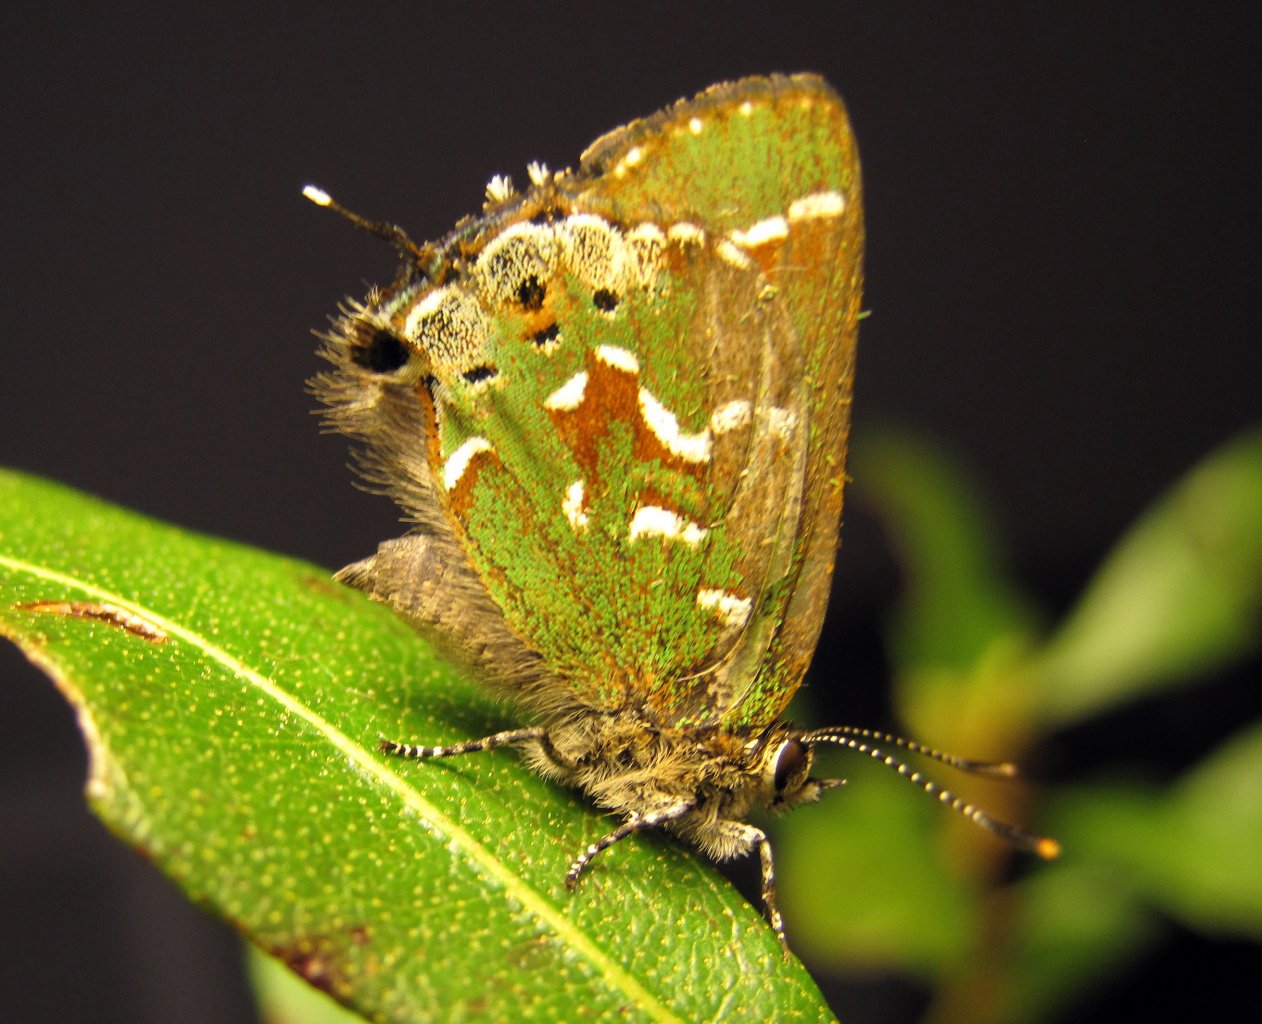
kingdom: Animalia
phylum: Arthropoda
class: Insecta
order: Lepidoptera
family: Lycaenidae
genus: Mitoura
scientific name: Mitoura gryneus
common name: Juniper Hairstreak
